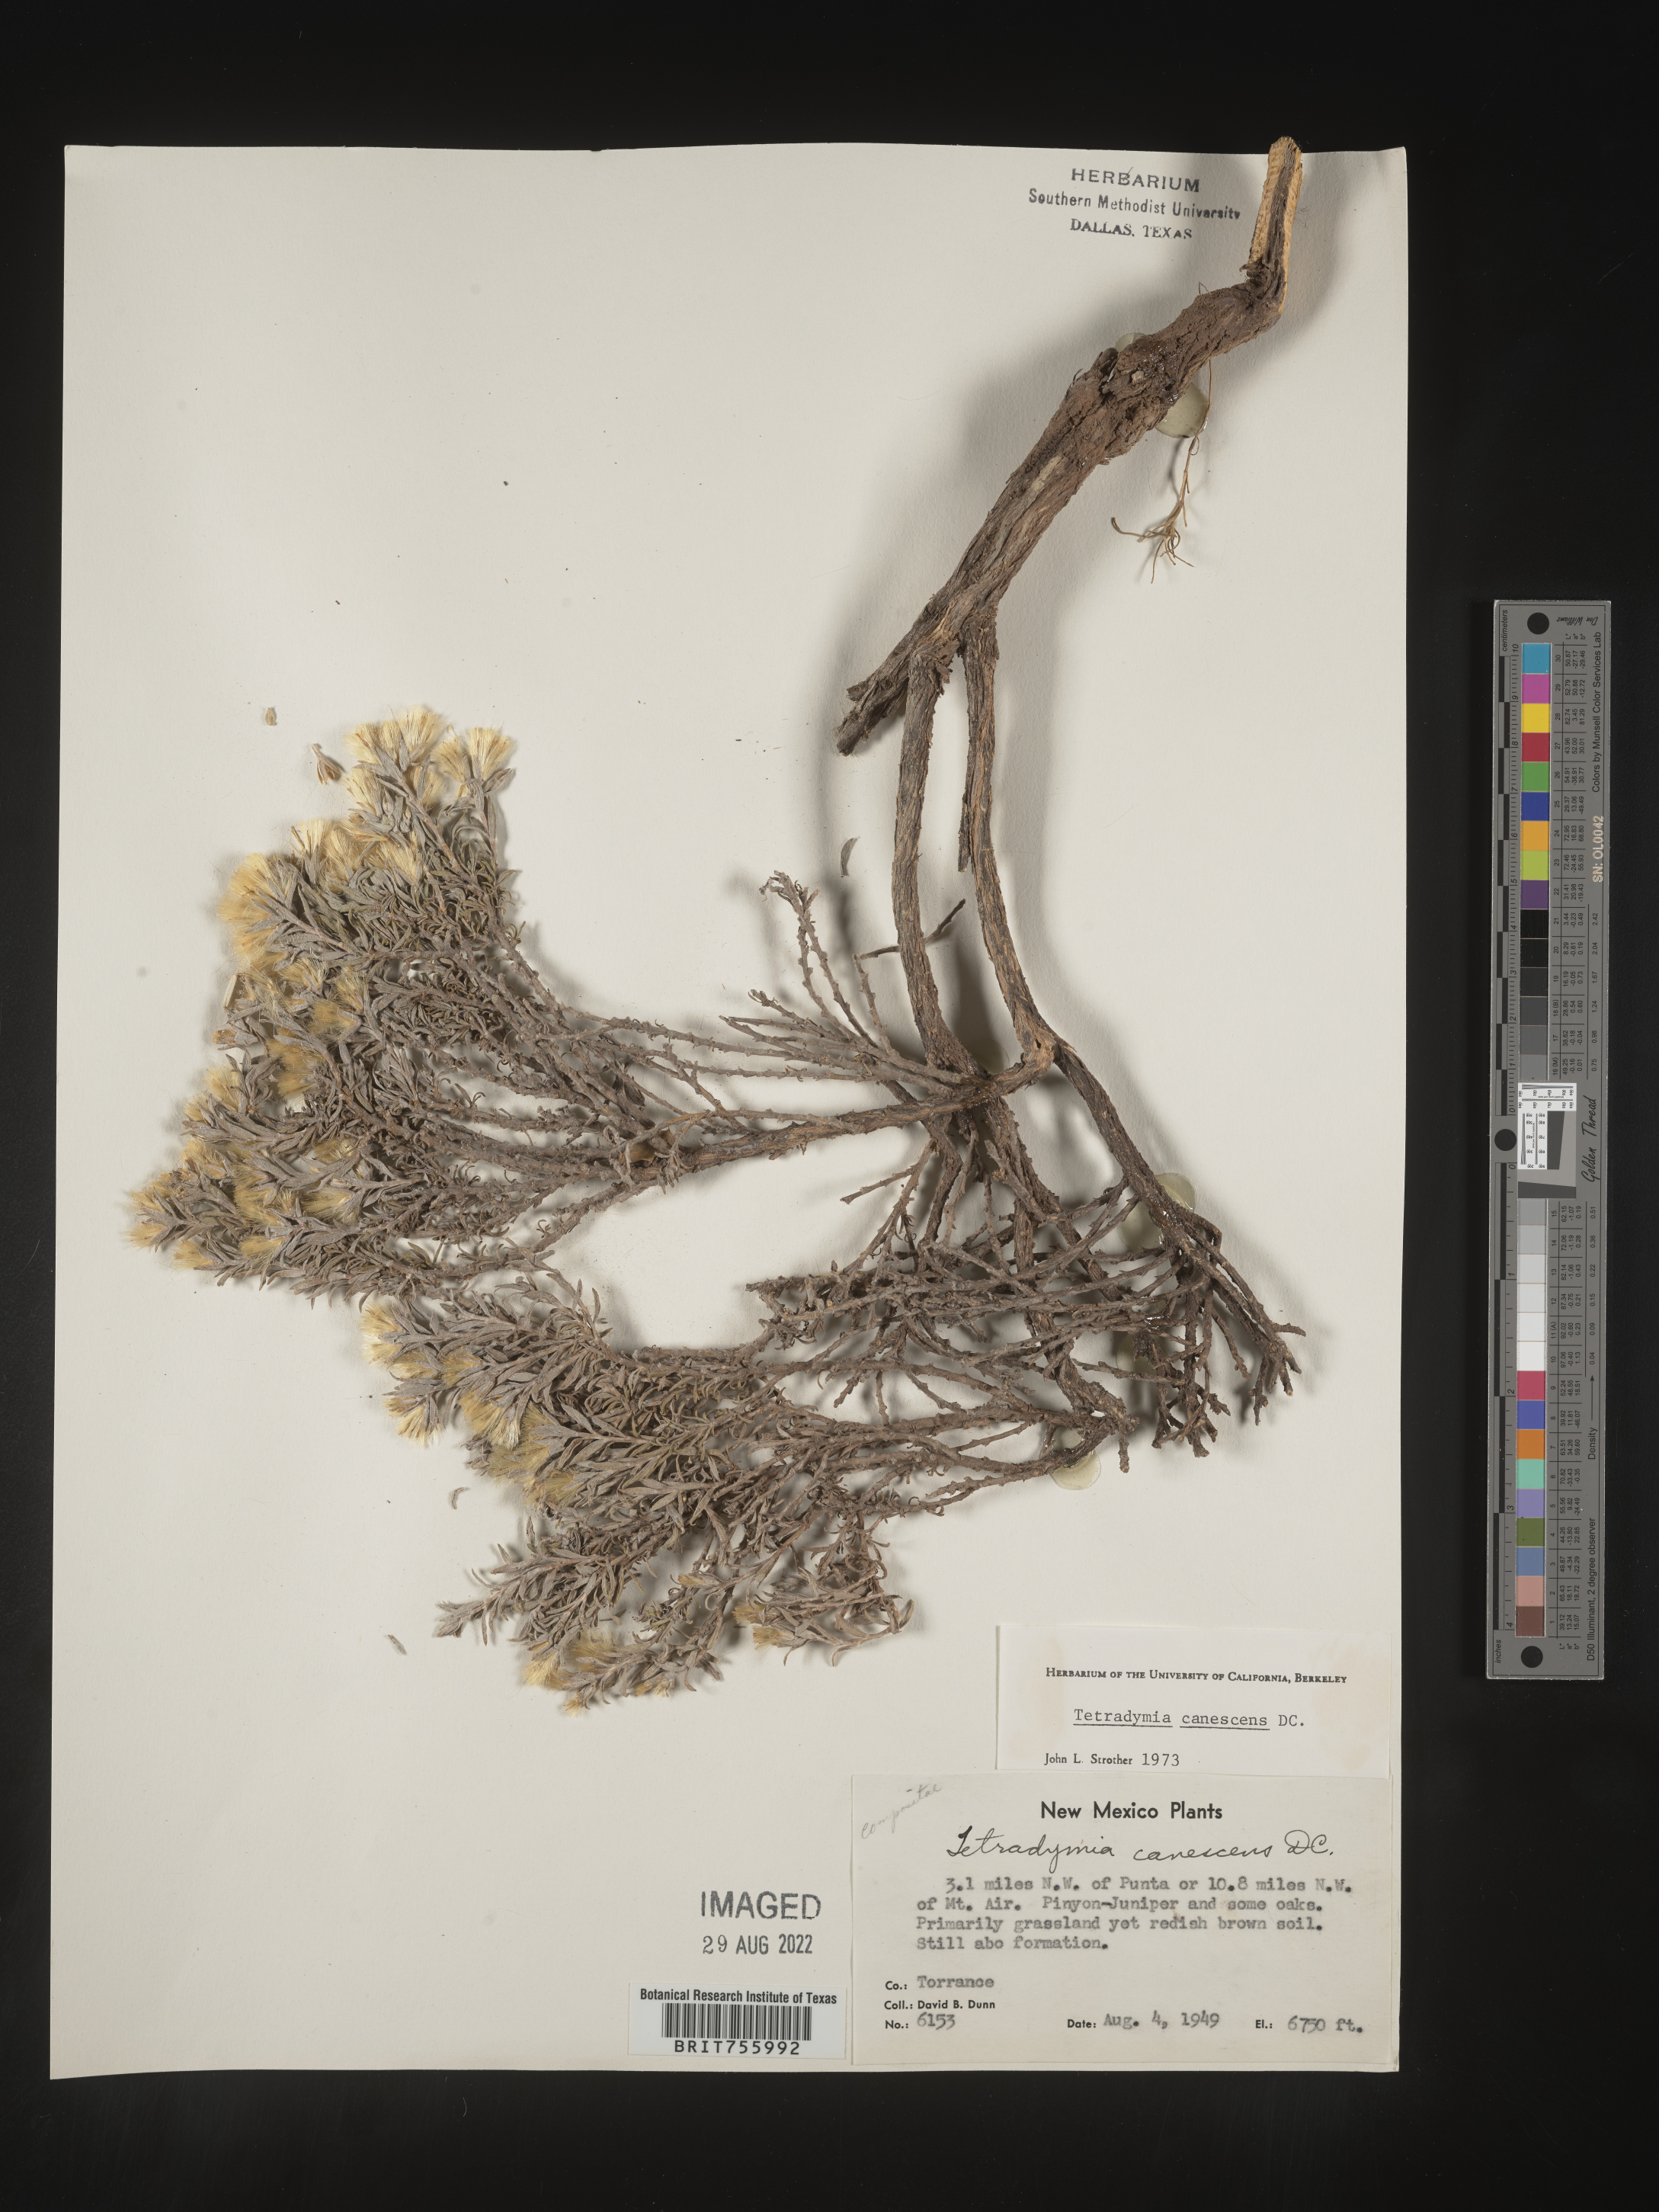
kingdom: Plantae
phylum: Tracheophyta
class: Magnoliopsida
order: Asterales
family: Asteraceae
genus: Tetradymia
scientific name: Tetradymia canescens
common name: Spineless horsebrush
